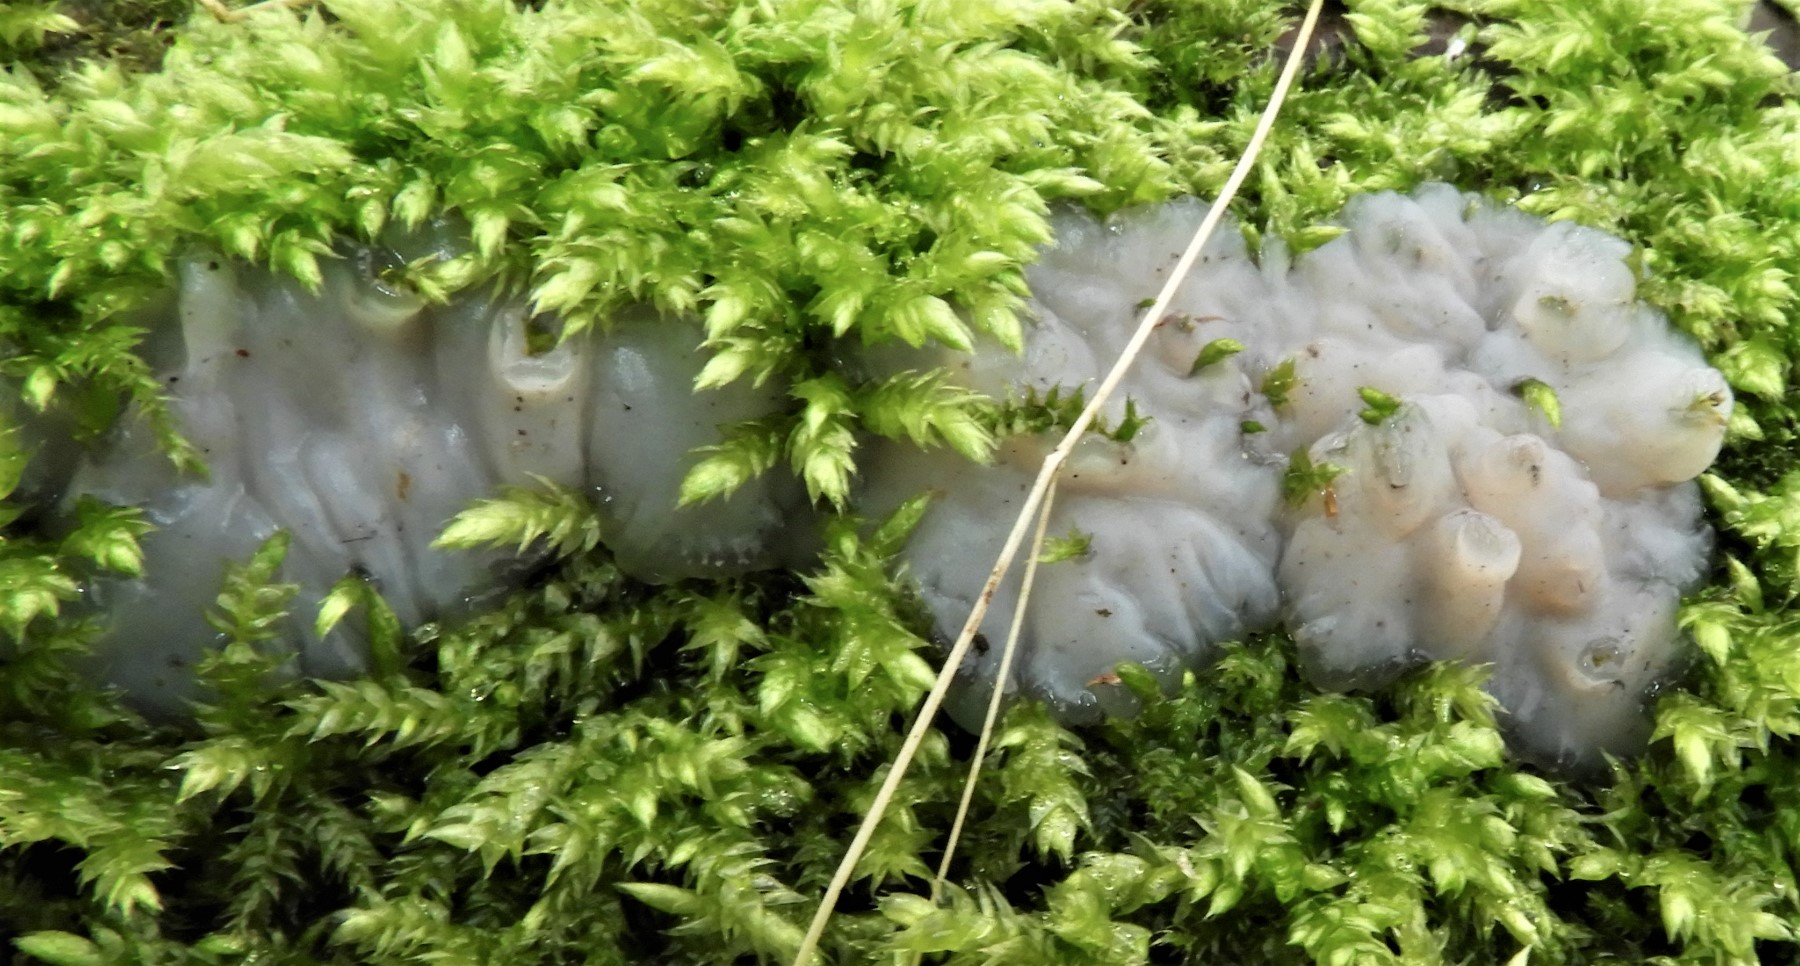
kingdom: Fungi
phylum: Basidiomycota
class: Agaricomycetes
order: Auriculariales
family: Auriculariaceae
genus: Exidia
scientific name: Exidia thuretiana
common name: hvidlig bævretop
